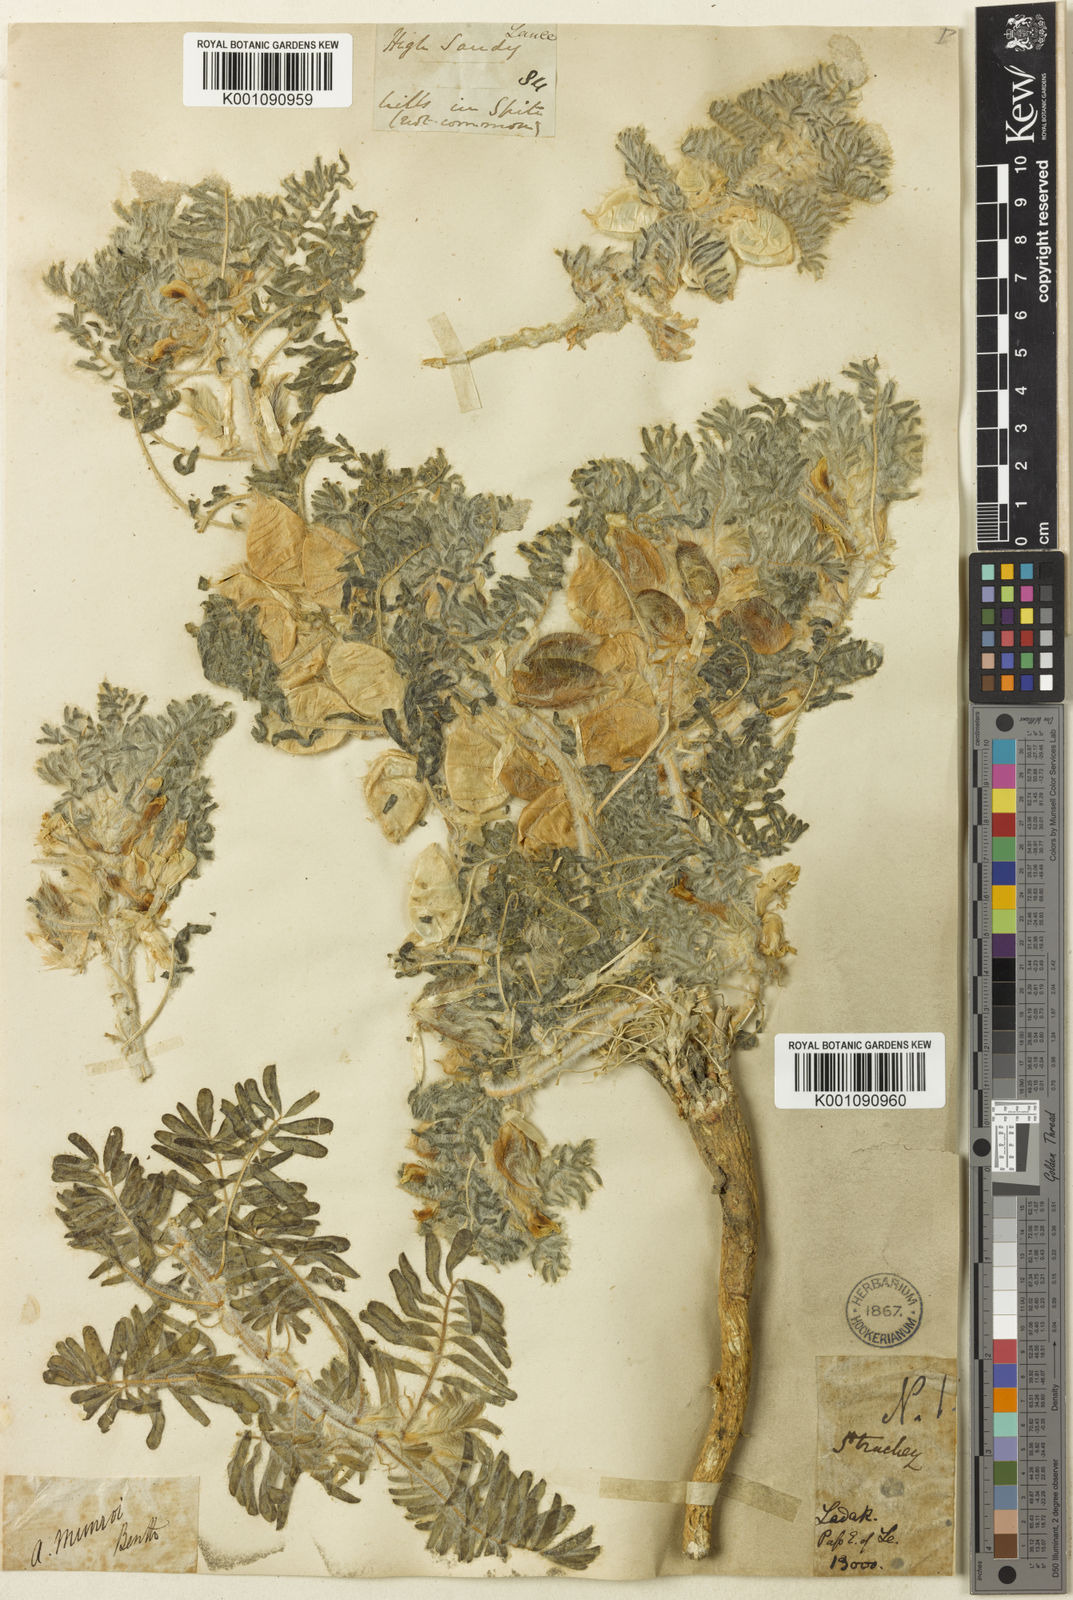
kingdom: Plantae
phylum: Tracheophyta
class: Magnoliopsida
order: Fabales
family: Fabaceae
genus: Astragalus
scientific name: Astragalus
